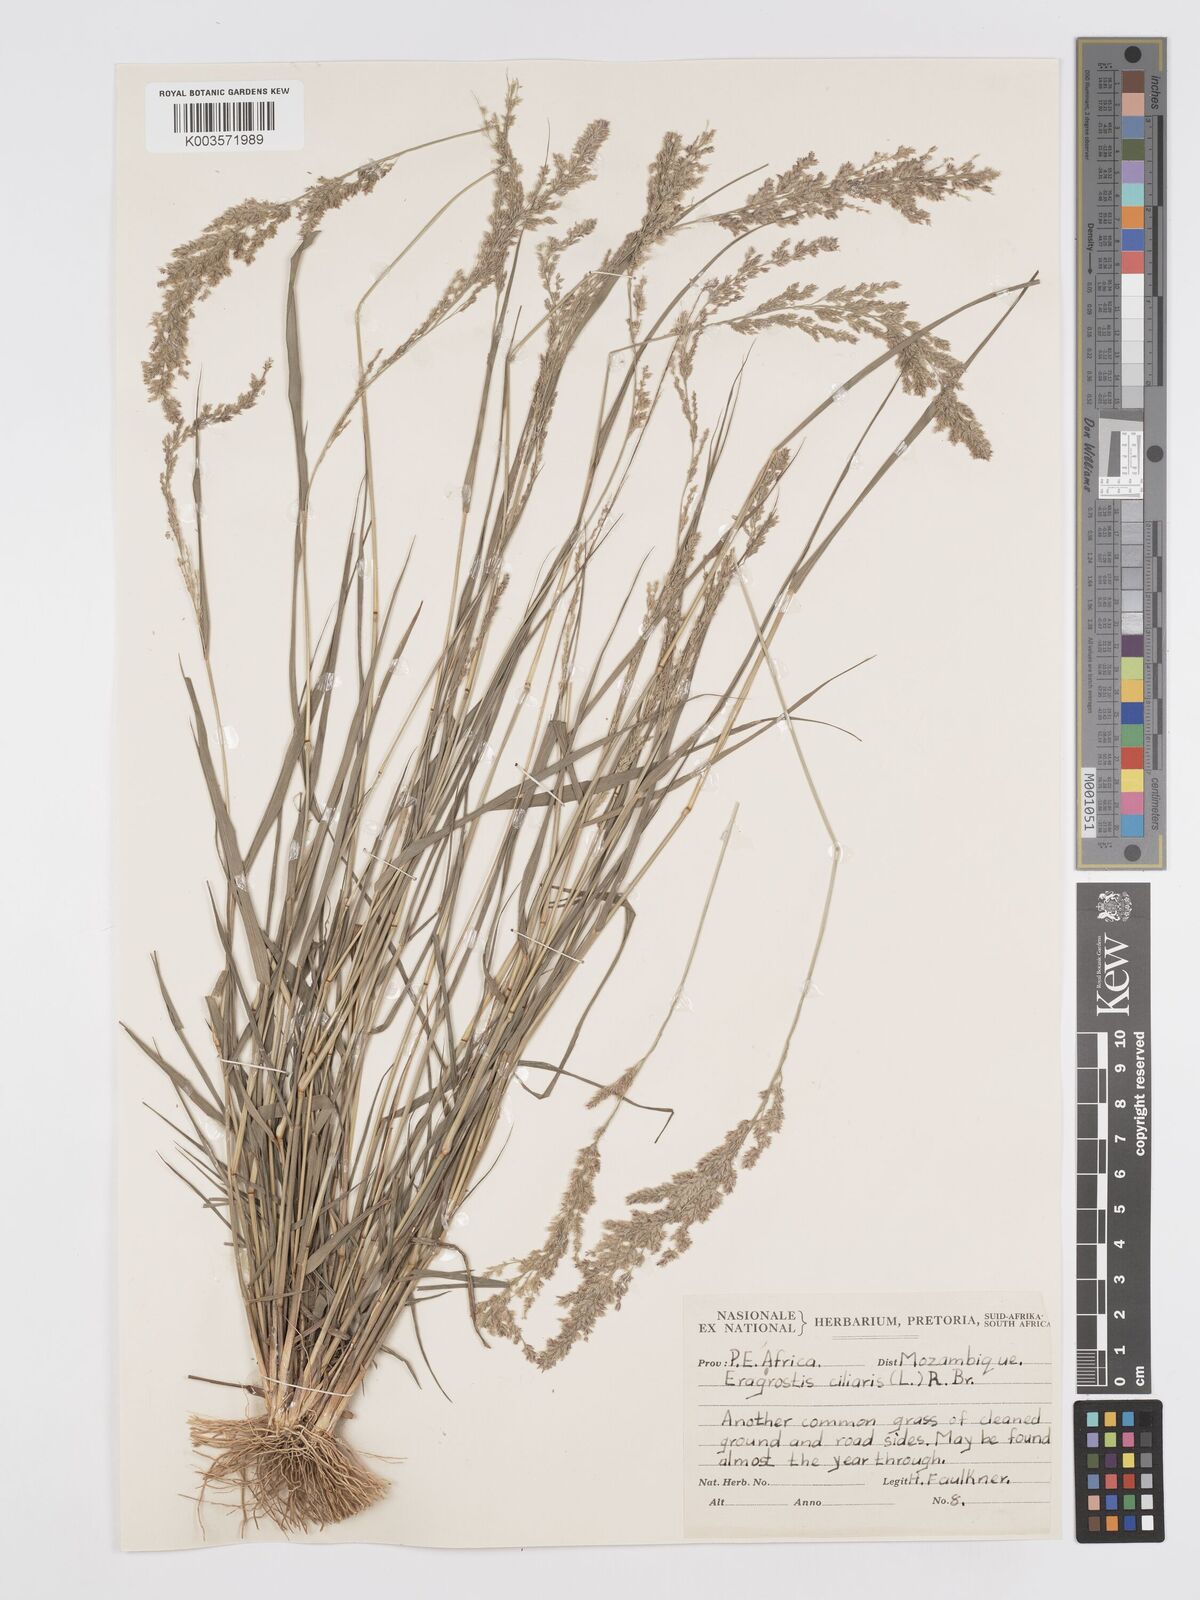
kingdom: Plantae
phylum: Tracheophyta
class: Liliopsida
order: Poales
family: Poaceae
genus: Eragrostis
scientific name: Eragrostis ciliaris
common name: Gophertail lovegrass
